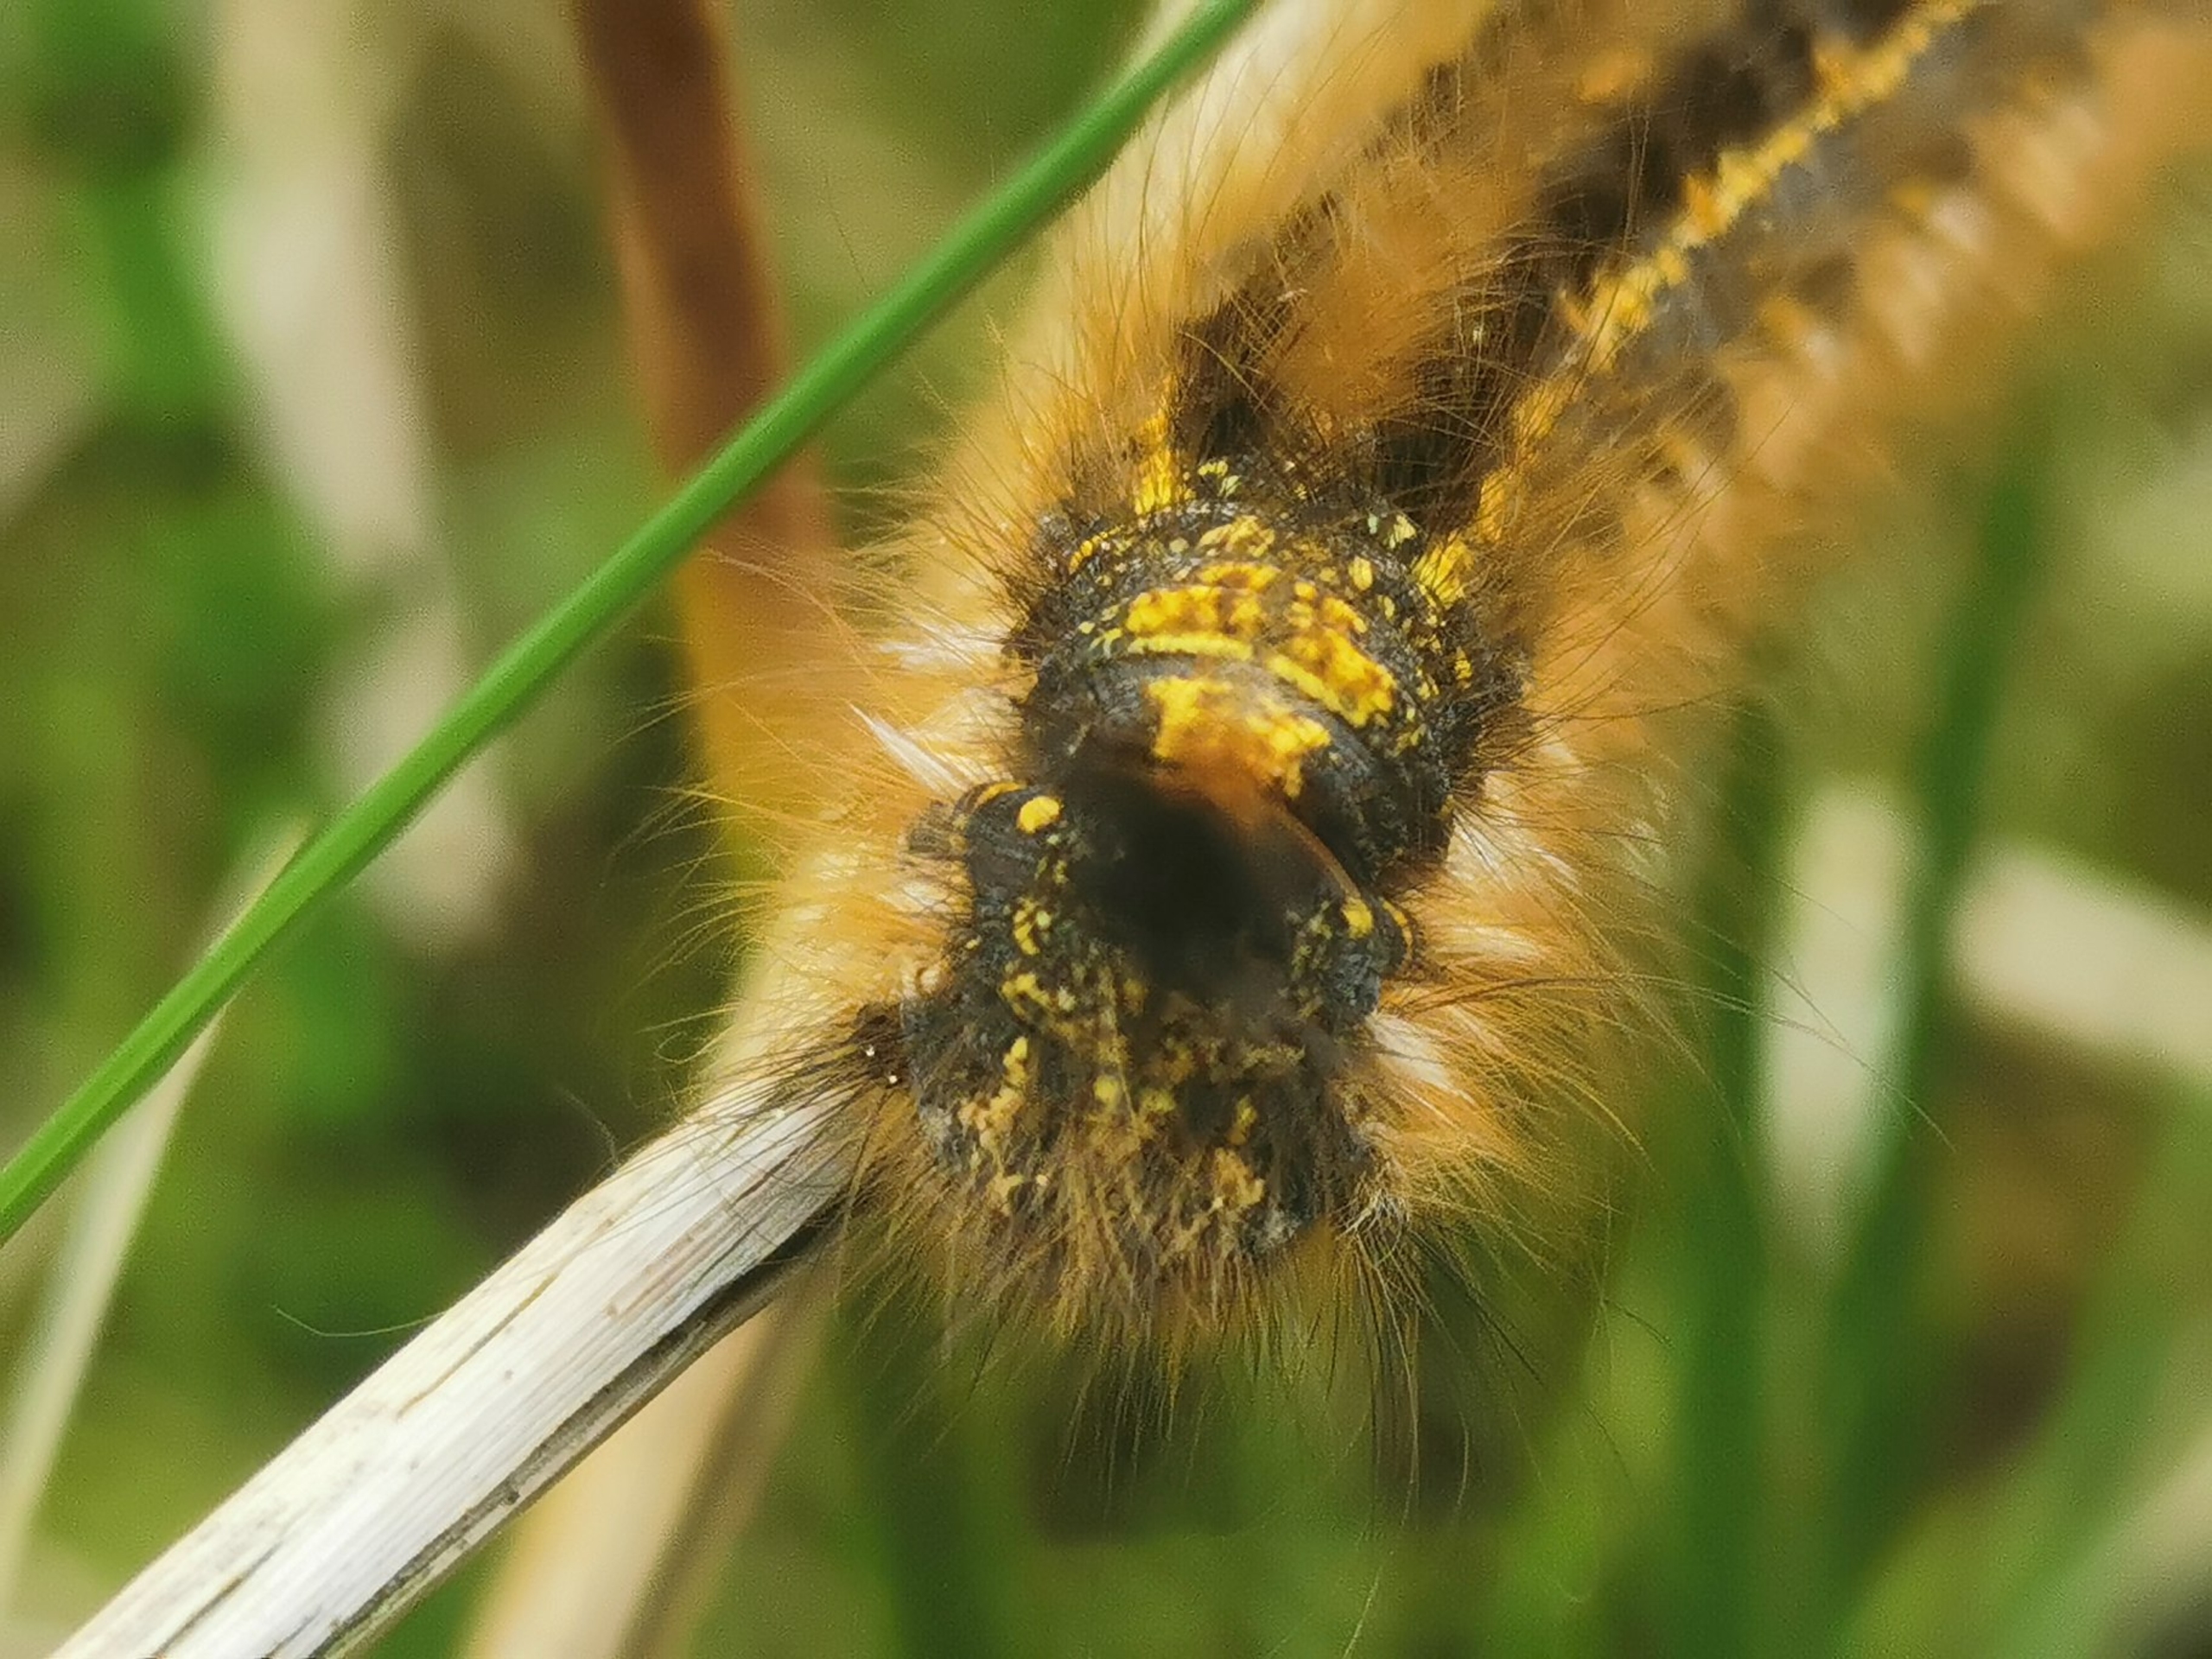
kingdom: Animalia
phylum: Arthropoda
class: Insecta
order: Lepidoptera
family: Lasiocampidae
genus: Euthrix
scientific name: Euthrix potatoria
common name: Græsspinder
